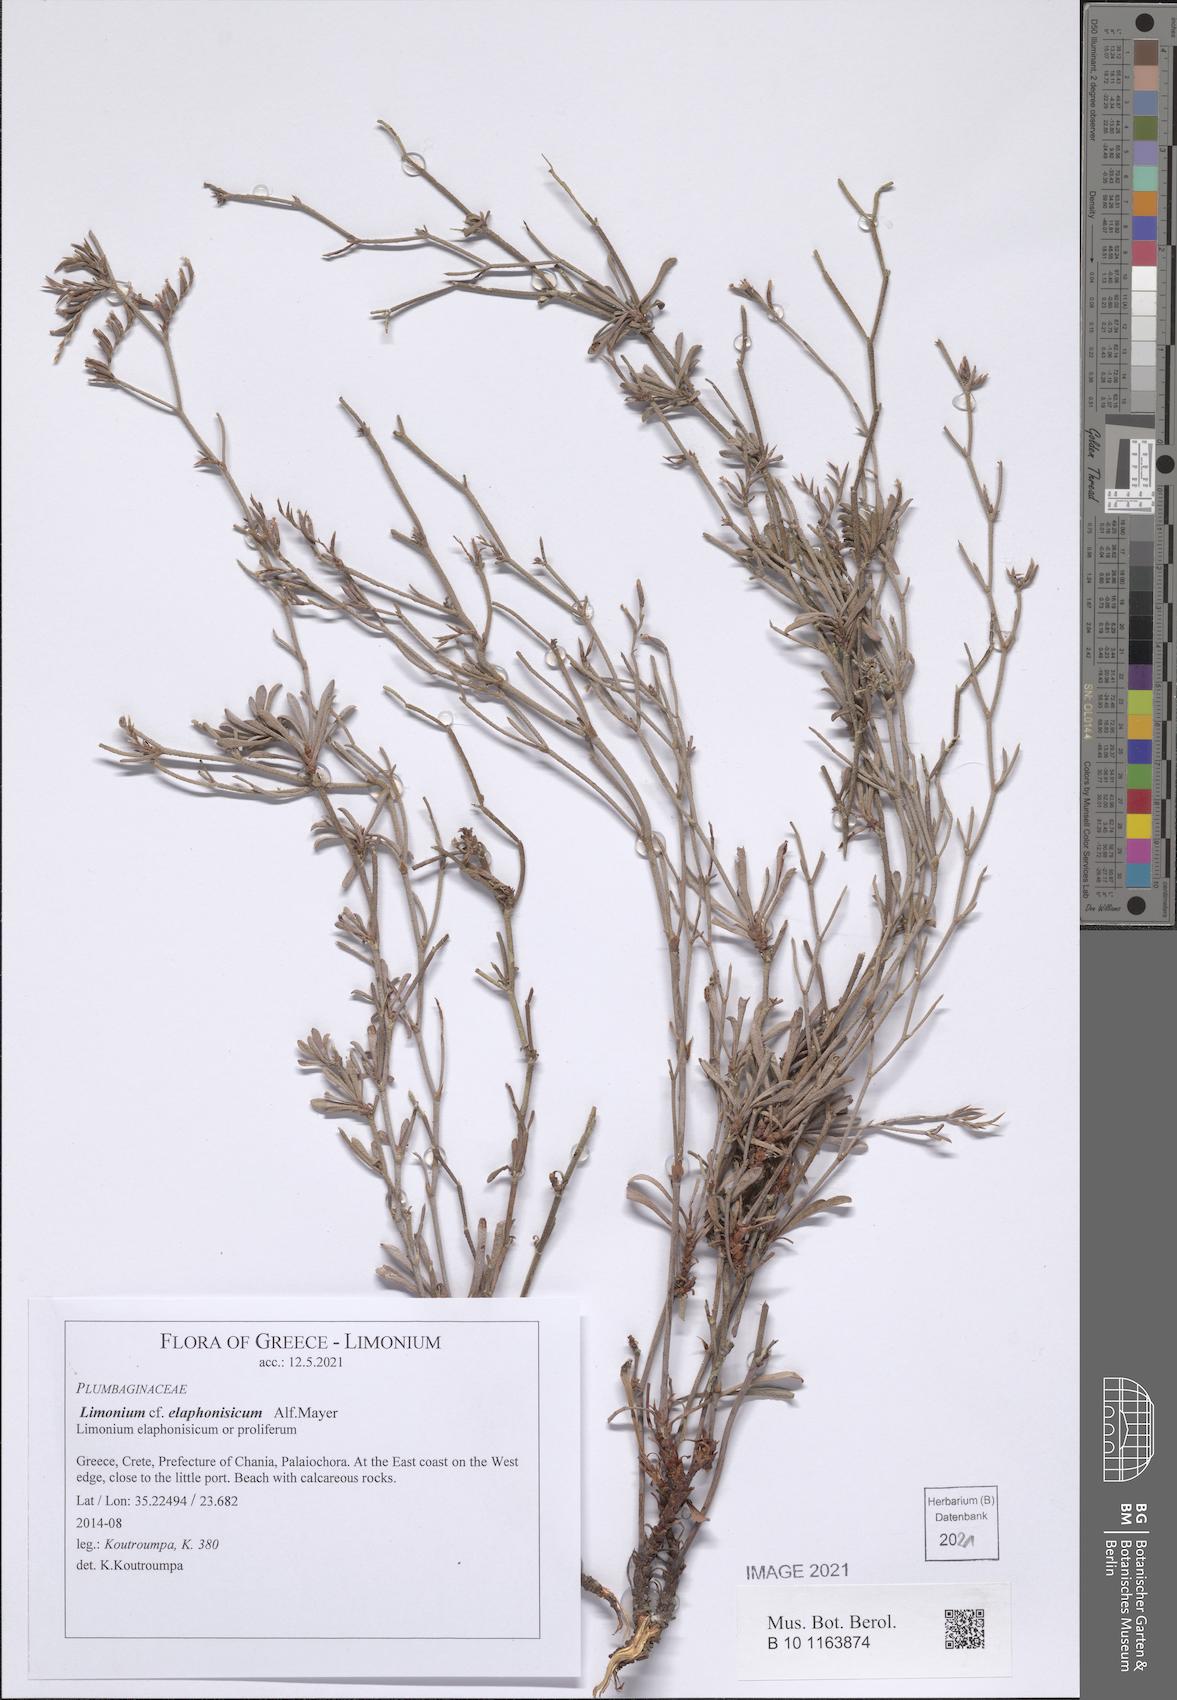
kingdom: Plantae
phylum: Tracheophyta
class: Magnoliopsida
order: Caryophyllales
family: Plumbaginaceae
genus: Limonium
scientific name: Limonium elaphonisicum
